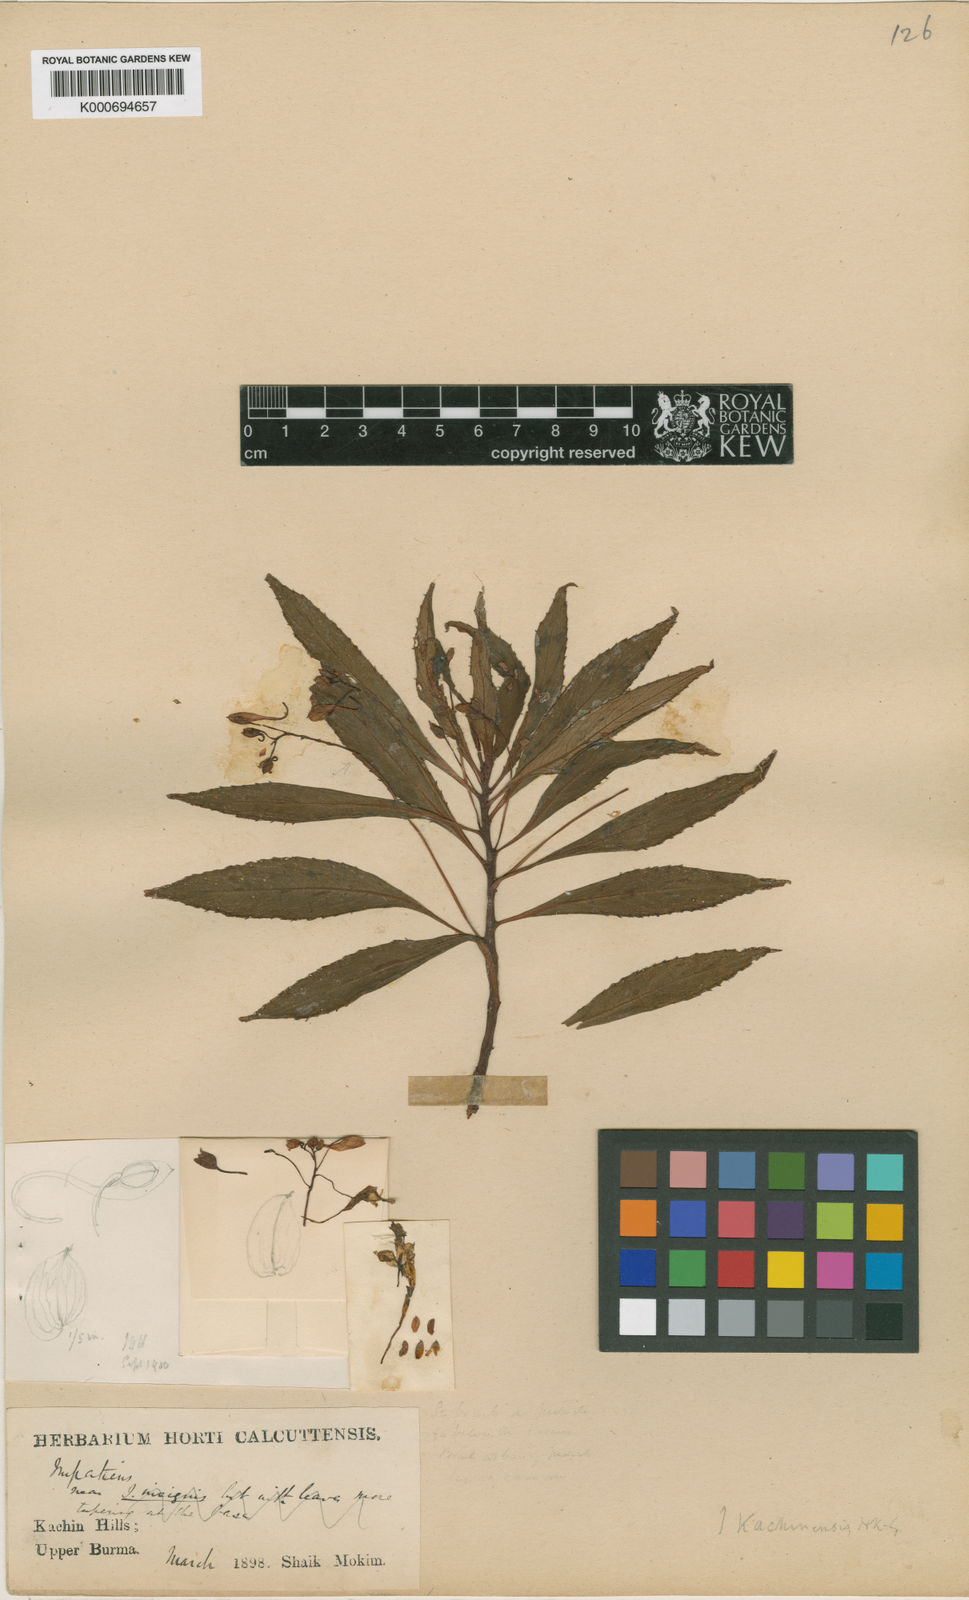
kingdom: Plantae
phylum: Tracheophyta
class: Magnoliopsida
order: Ericales
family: Balsaminaceae
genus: Impatiens
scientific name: Impatiens kachinensis
